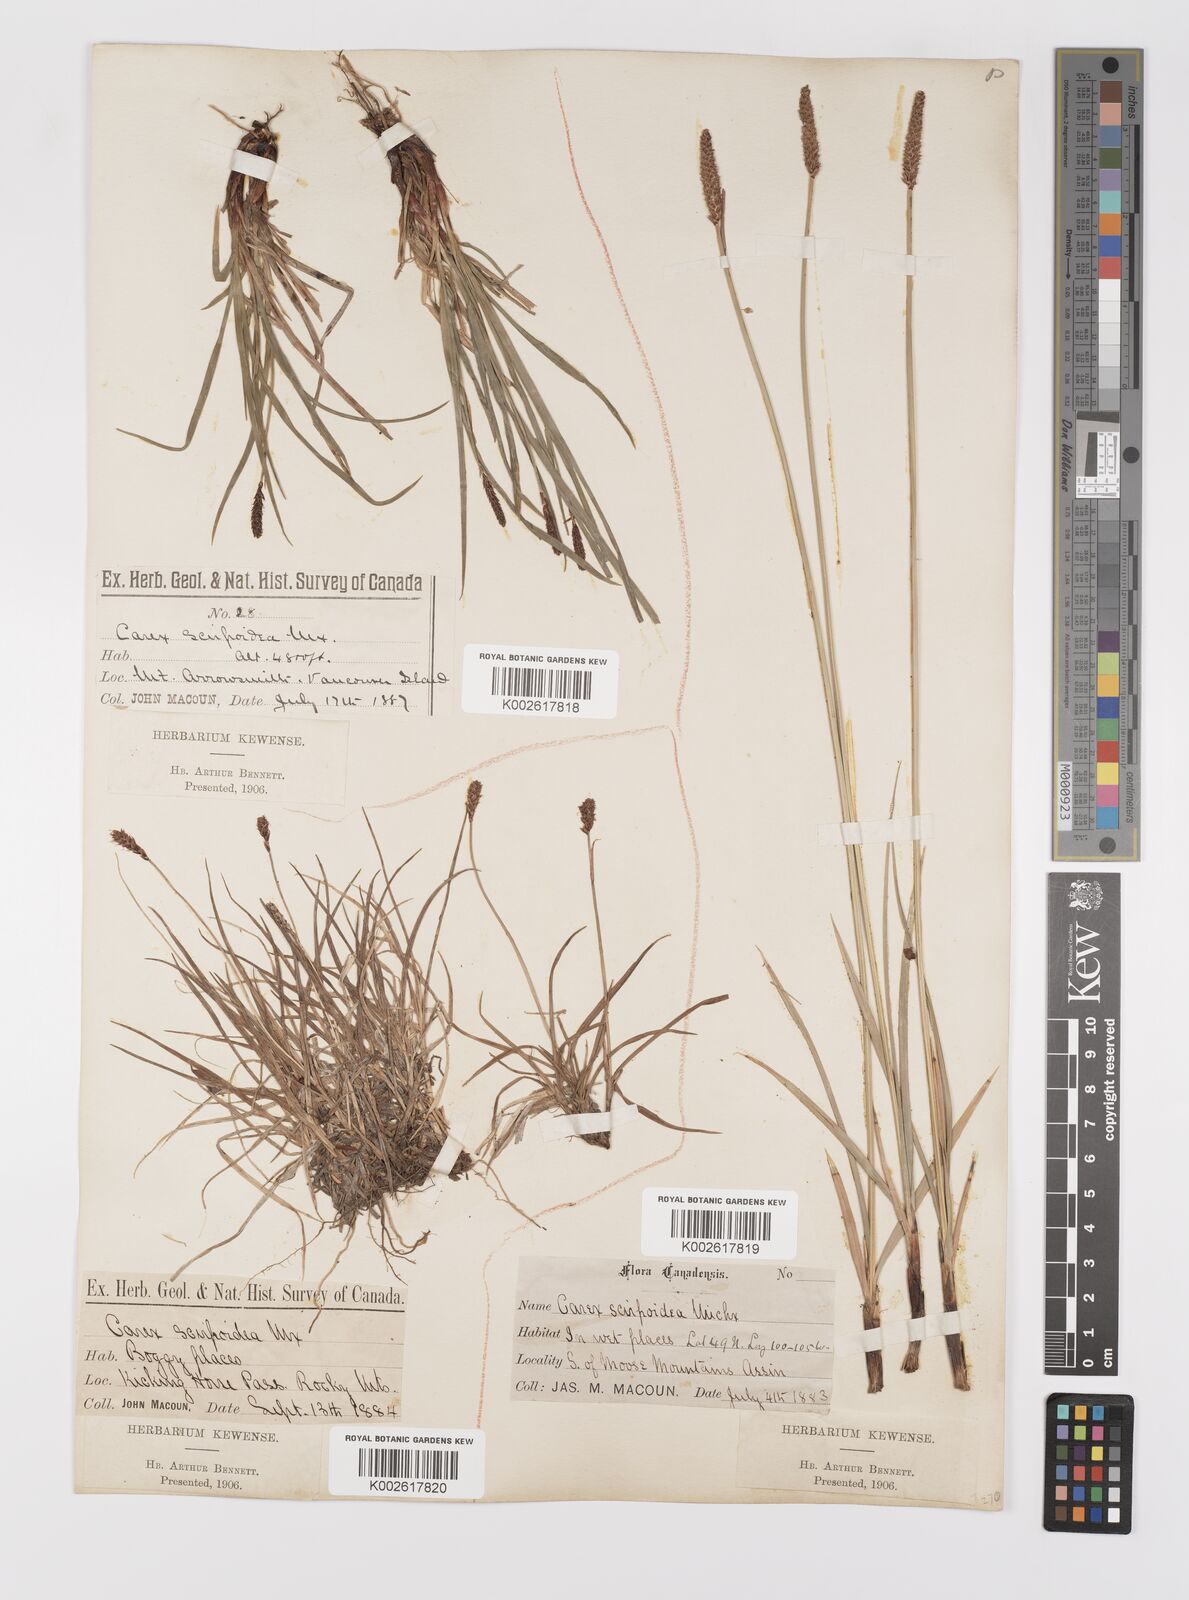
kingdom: Plantae
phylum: Tracheophyta
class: Liliopsida
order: Poales
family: Cyperaceae
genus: Carex
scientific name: Carex scirpoidea
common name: Canada single-spike sedge
